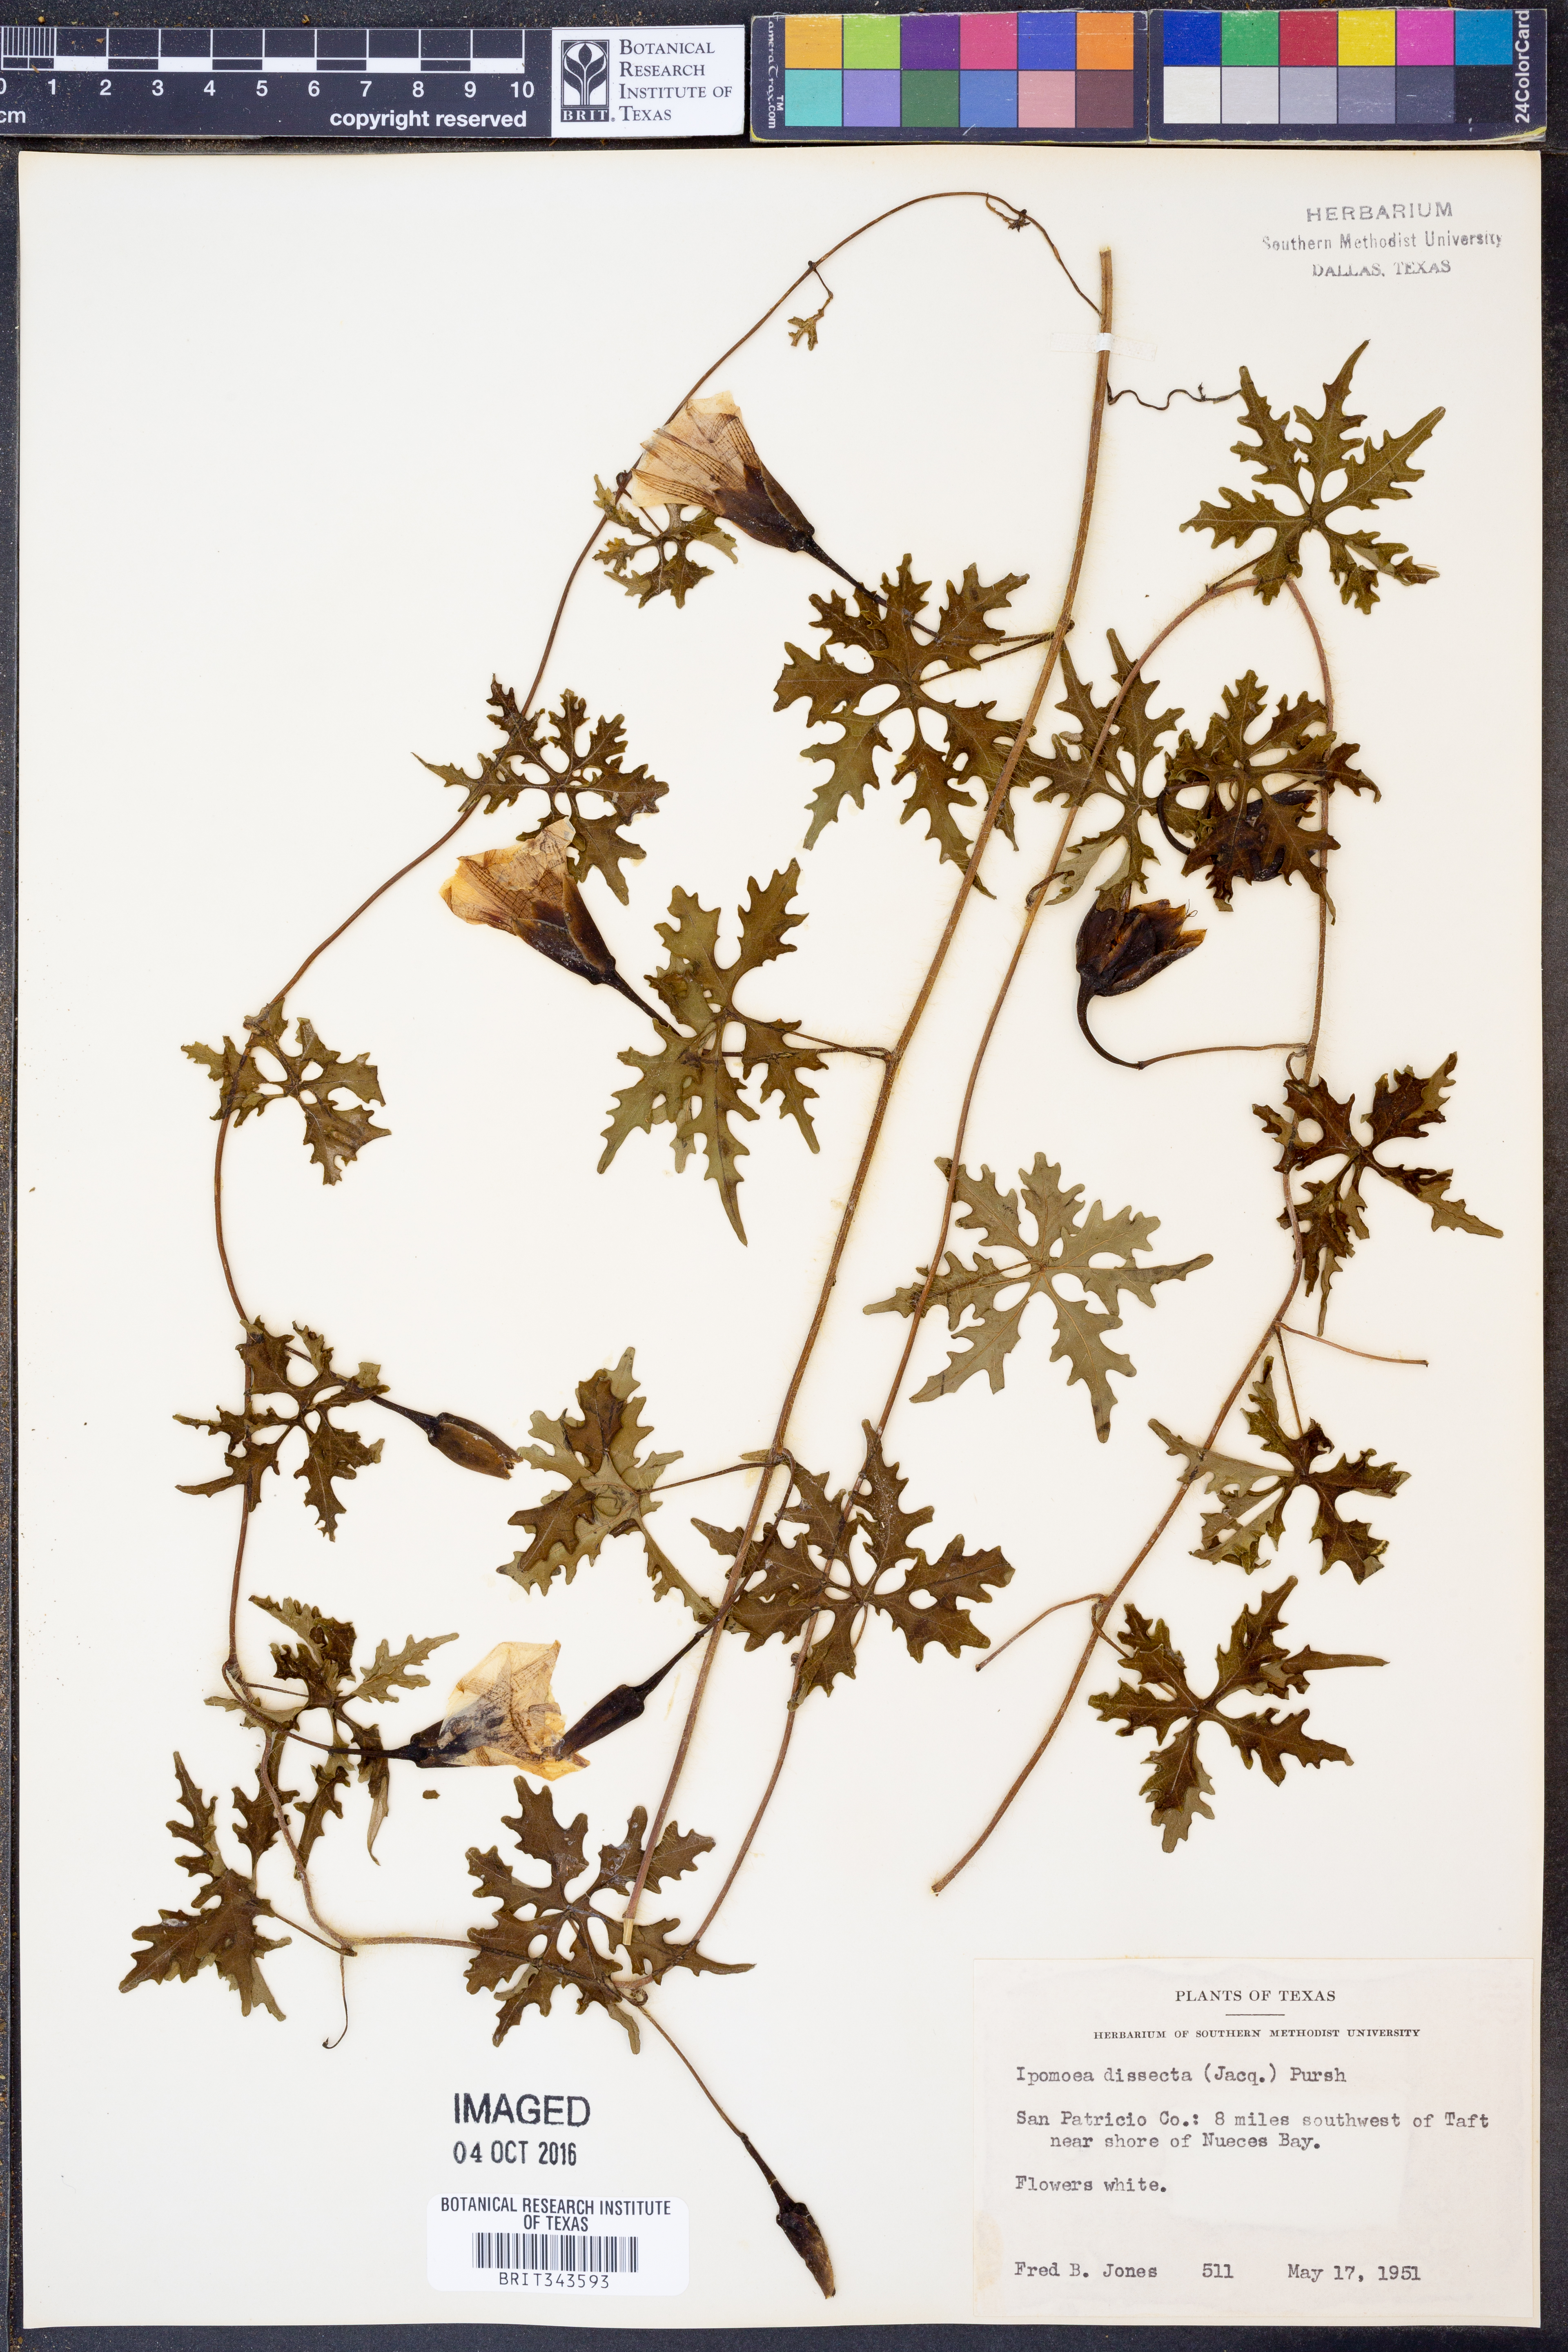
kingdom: Plantae
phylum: Tracheophyta
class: Magnoliopsida
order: Solanales
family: Convolvulaceae
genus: Ipomoea
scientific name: Ipomoea coptica
